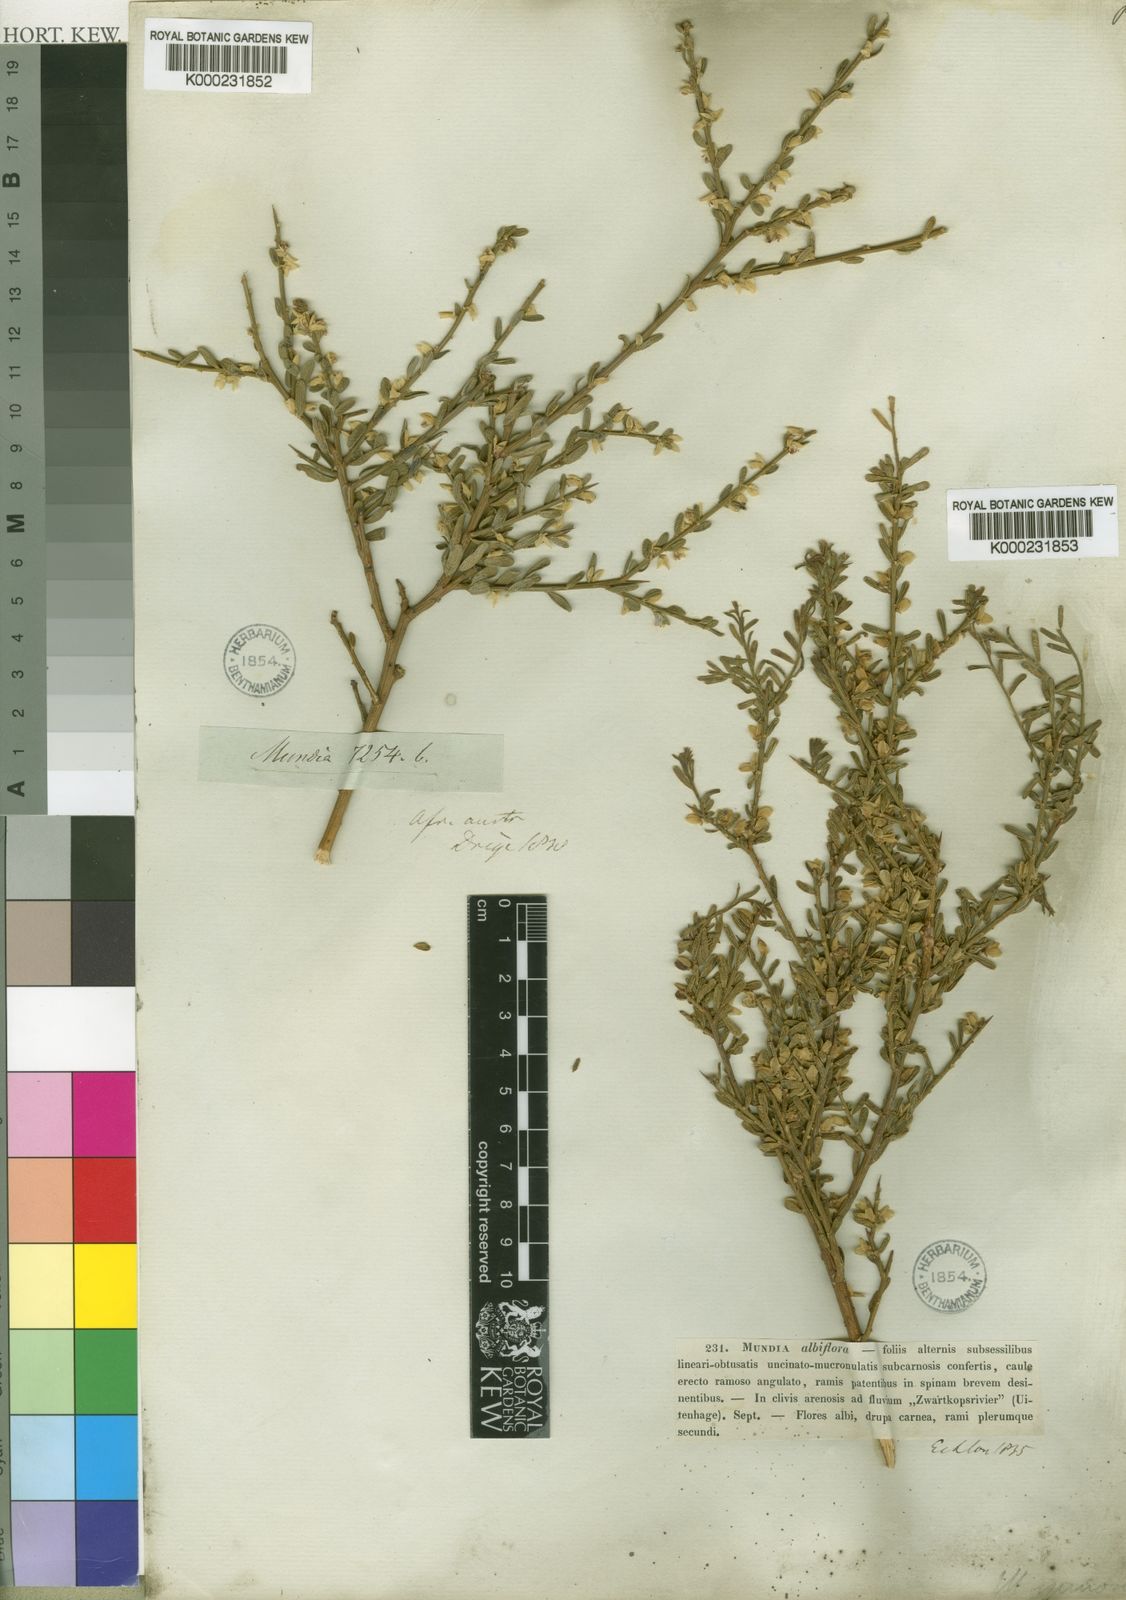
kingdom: Plantae
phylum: Tracheophyta
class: Magnoliopsida
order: Fabales
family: Polygalaceae
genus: Muraltia
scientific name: Muraltia spinosa
